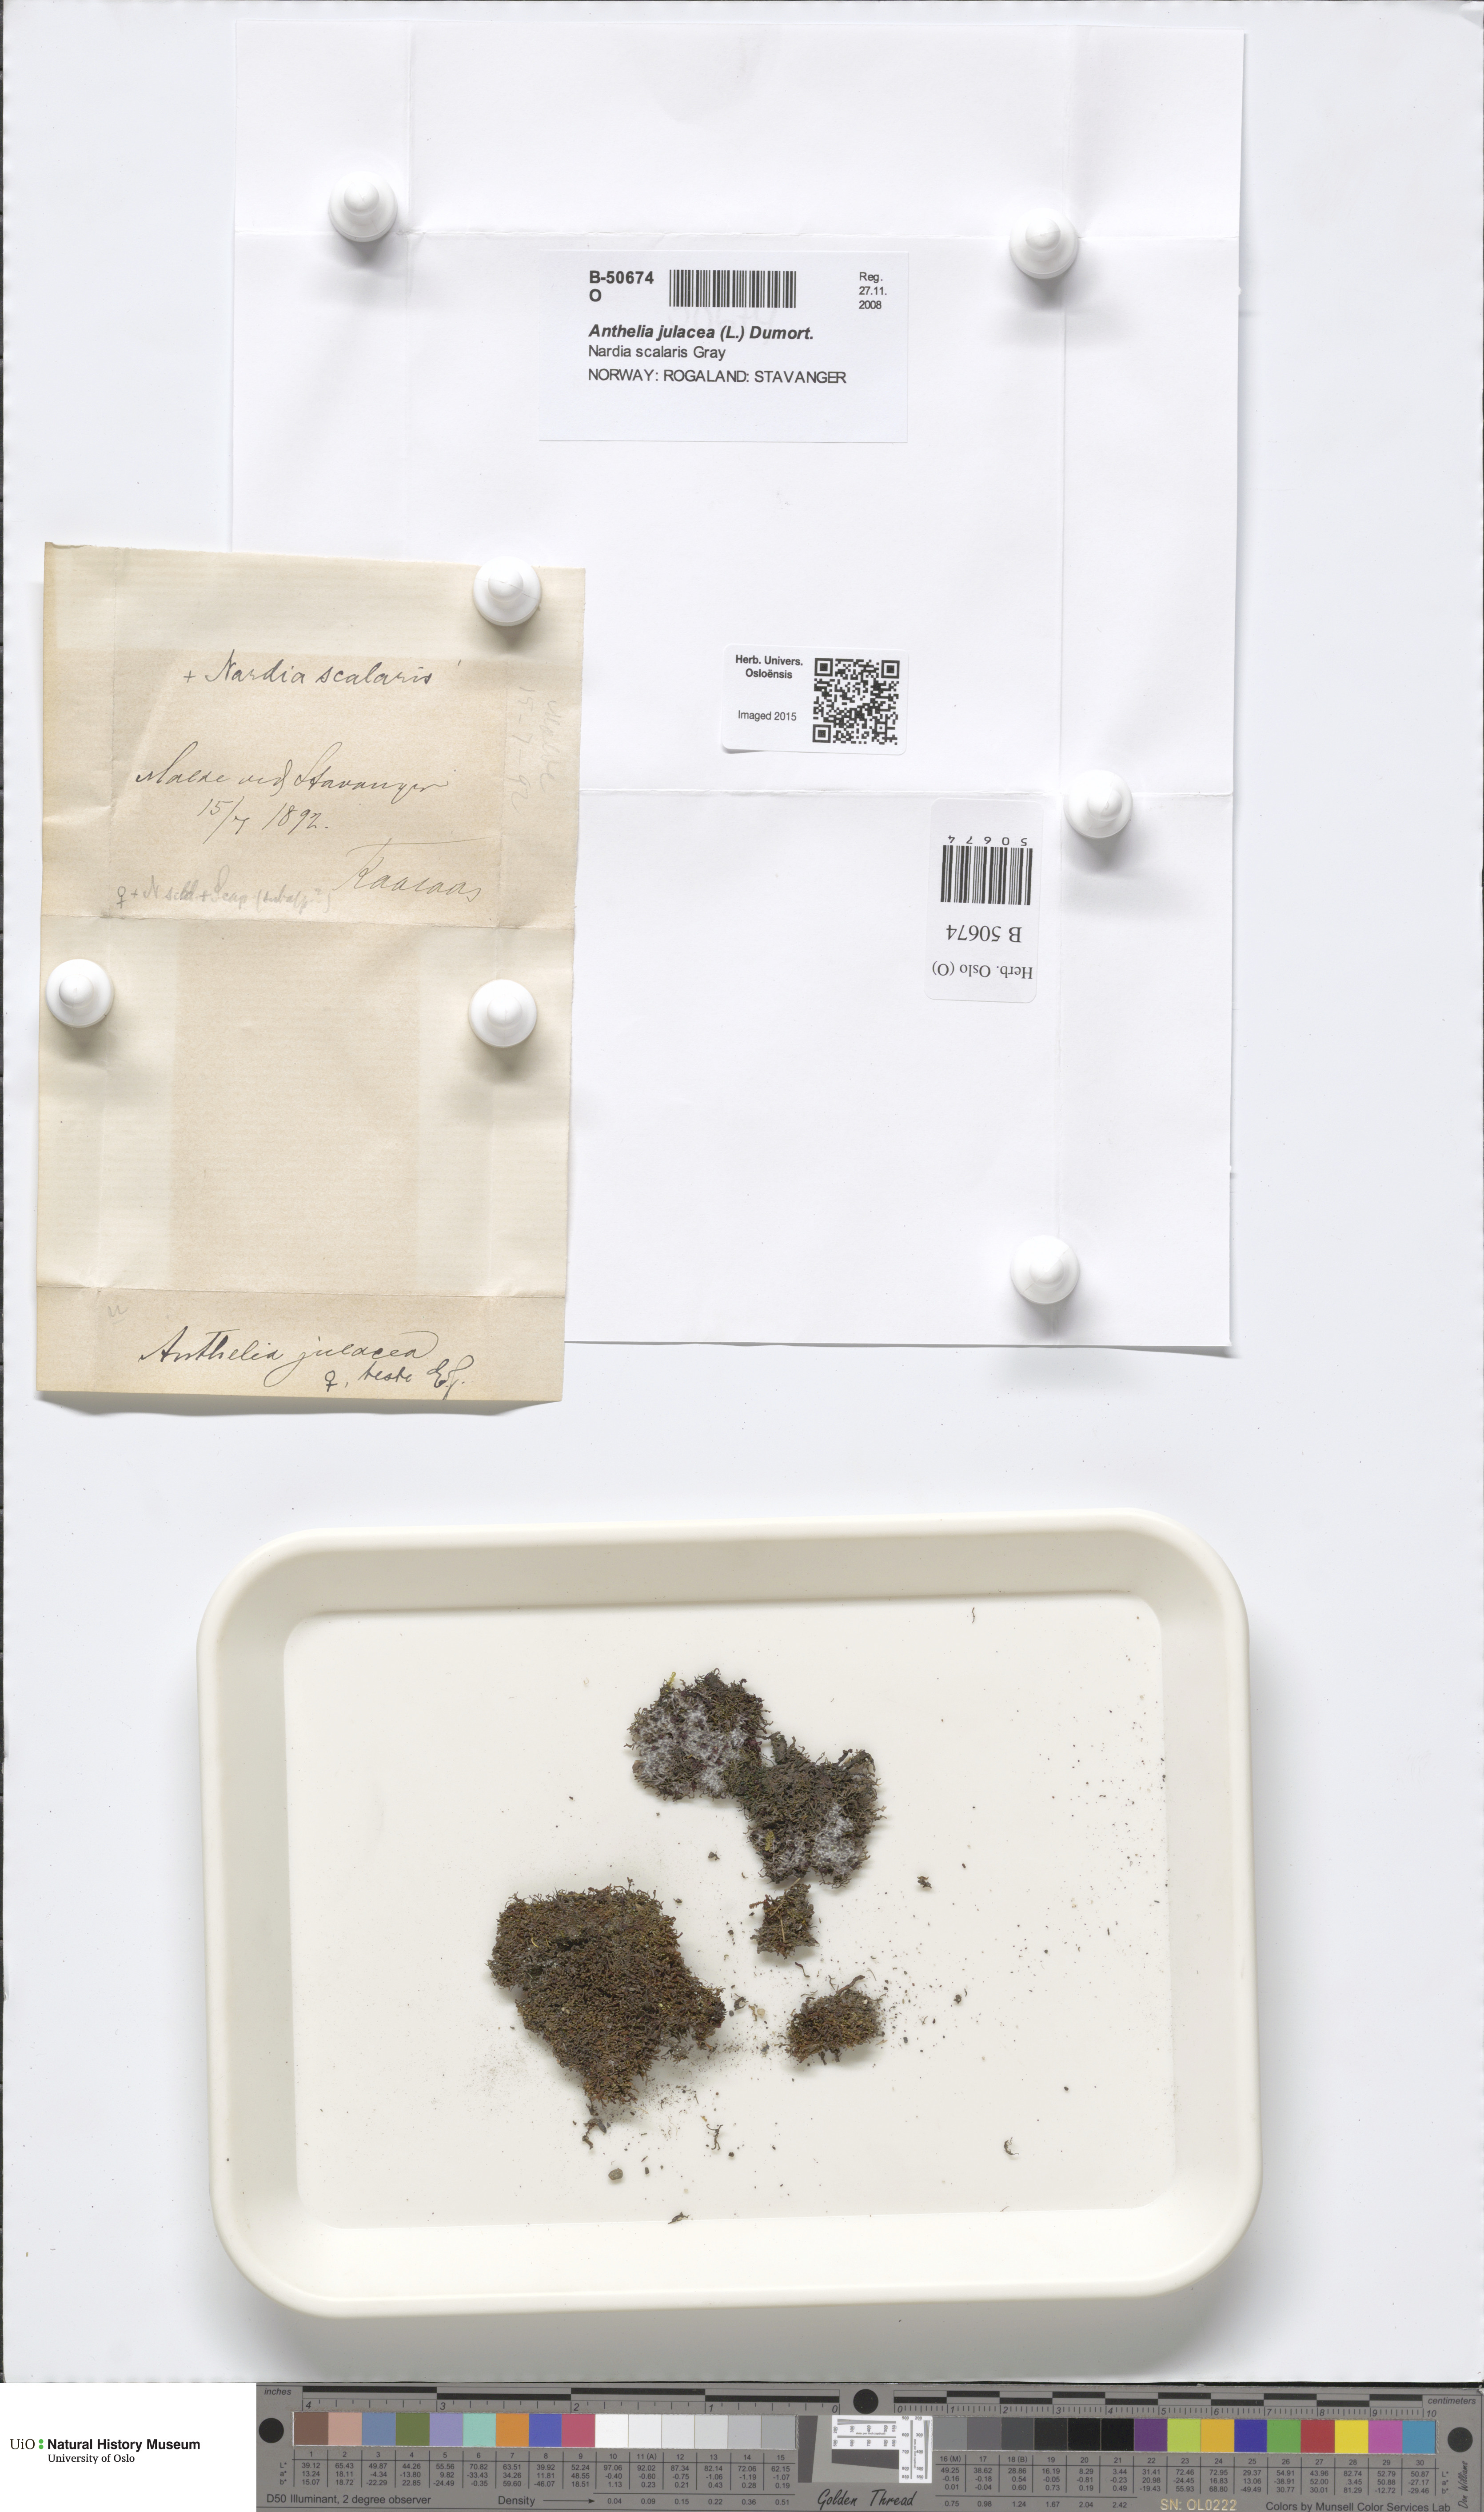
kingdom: Plantae
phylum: Marchantiophyta
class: Jungermanniopsida
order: Jungermanniales
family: Antheliaceae
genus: Anthelia
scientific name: Anthelia julacea
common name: Alpine silverwort
